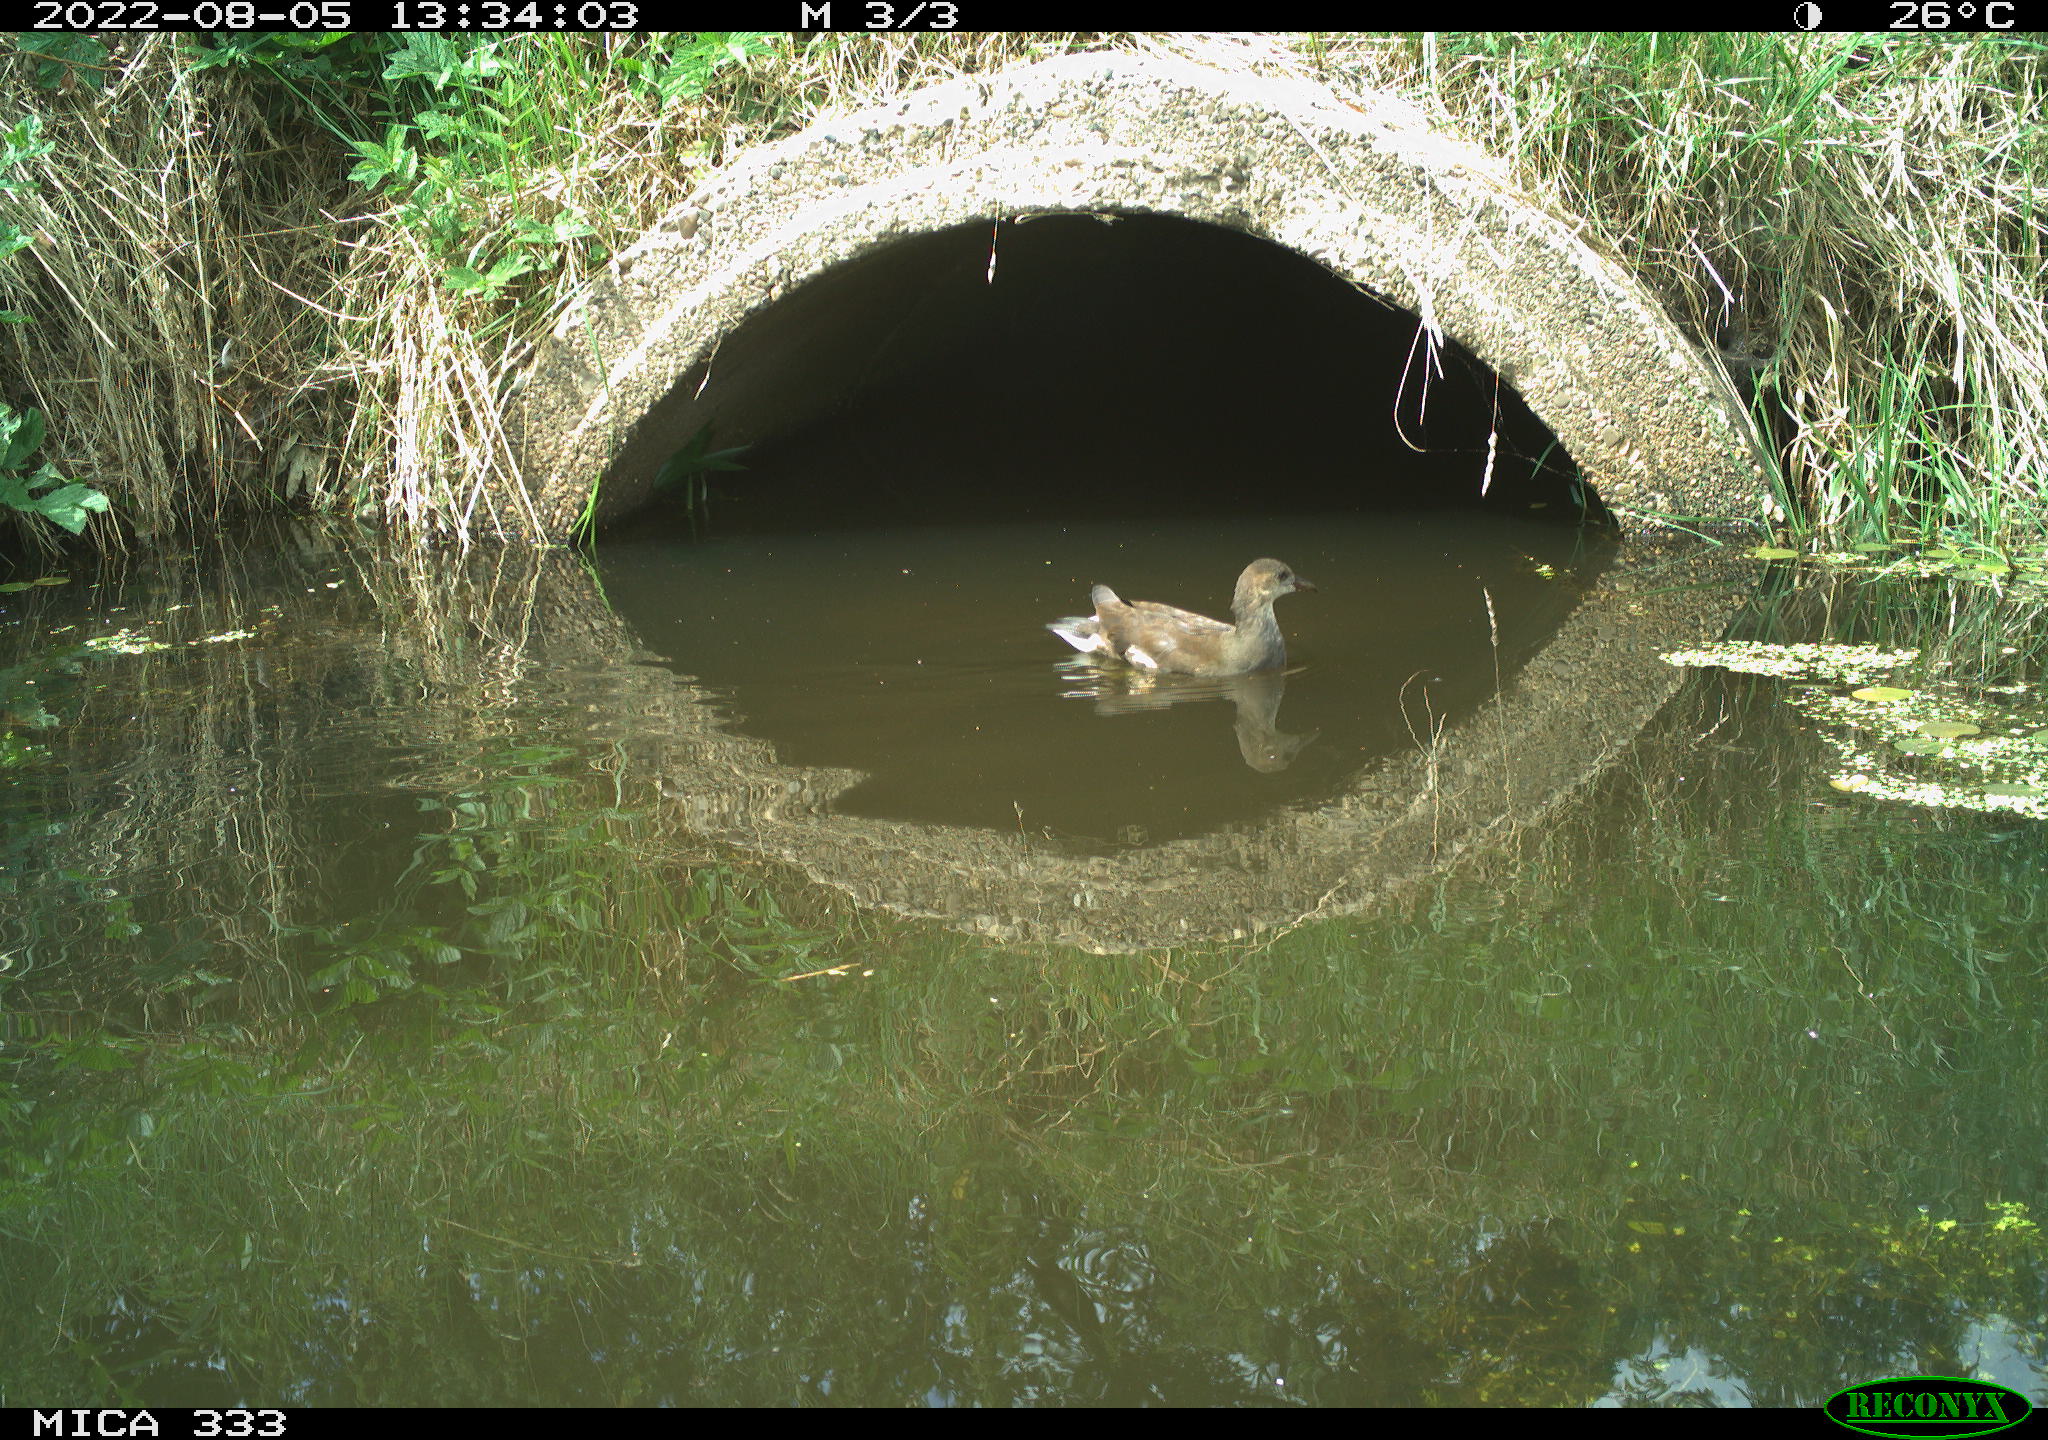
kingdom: Animalia
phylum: Chordata
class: Aves
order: Gruiformes
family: Rallidae
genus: Gallinula
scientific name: Gallinula chloropus
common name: Common moorhen
